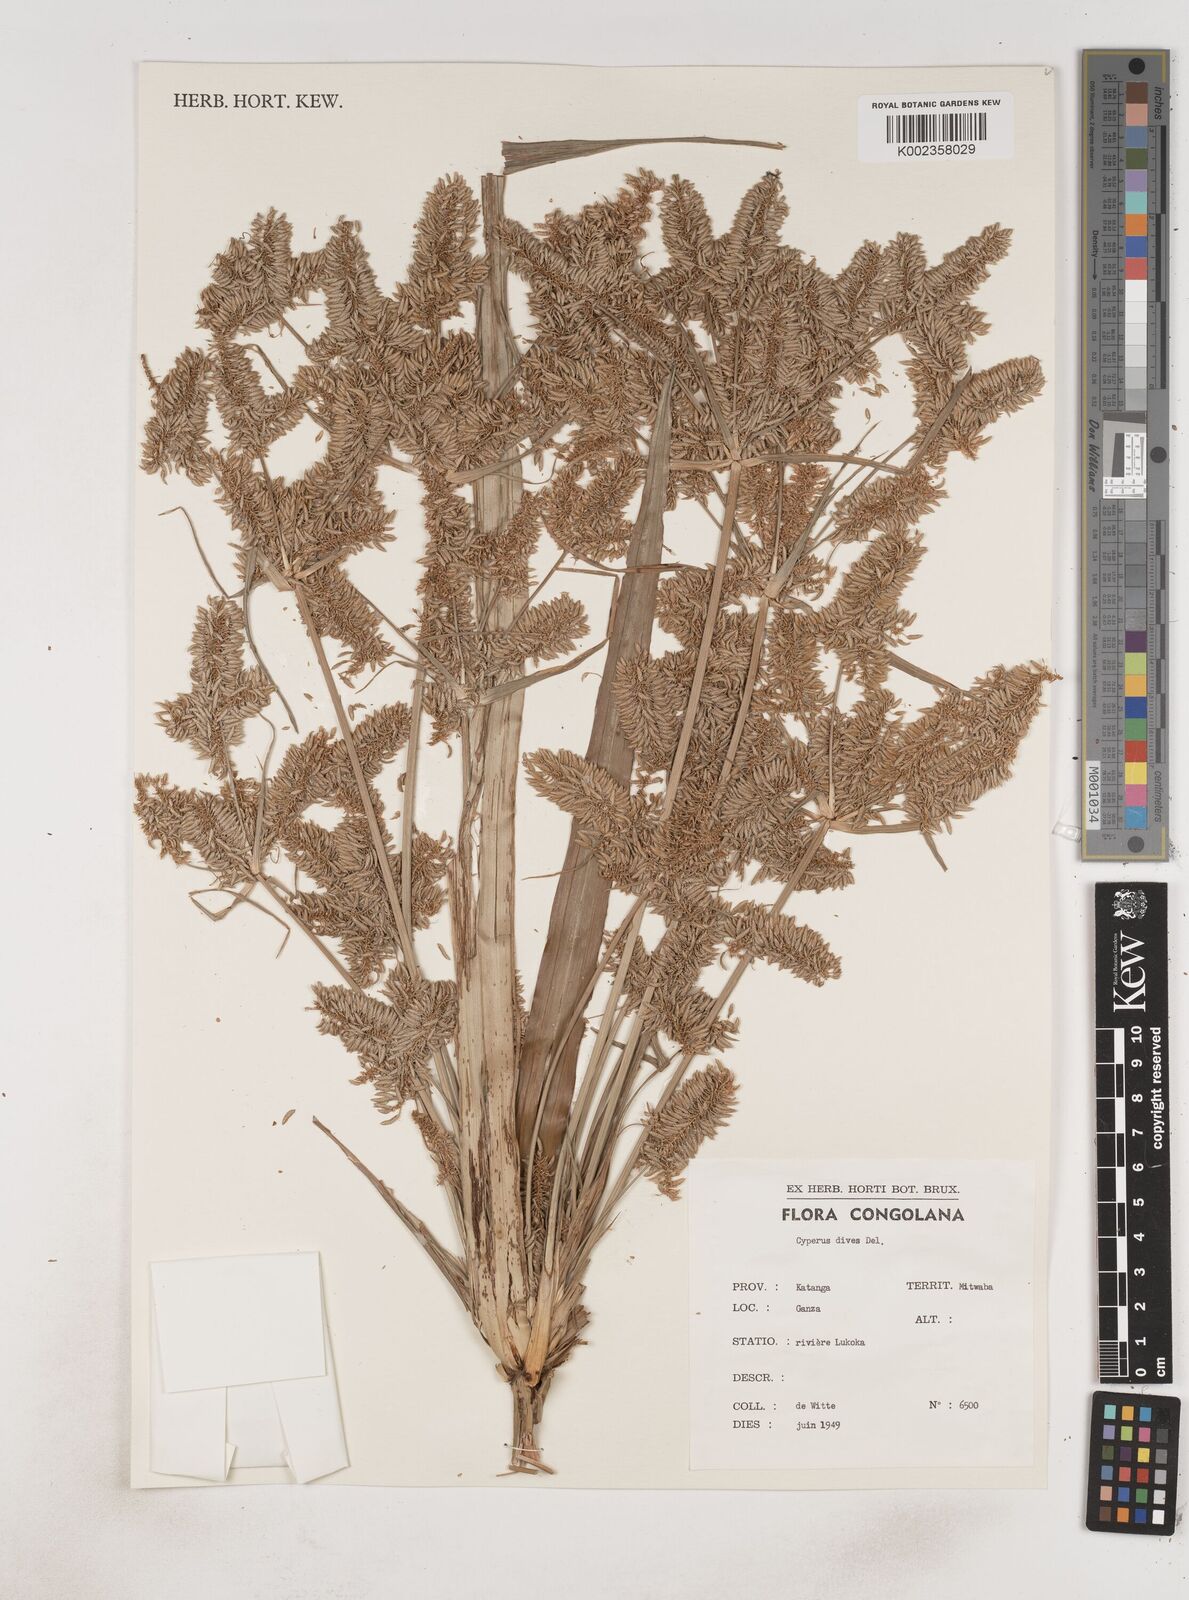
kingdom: Plantae
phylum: Tracheophyta
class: Liliopsida
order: Poales
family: Cyperaceae
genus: Cyperus
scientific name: Cyperus dives
